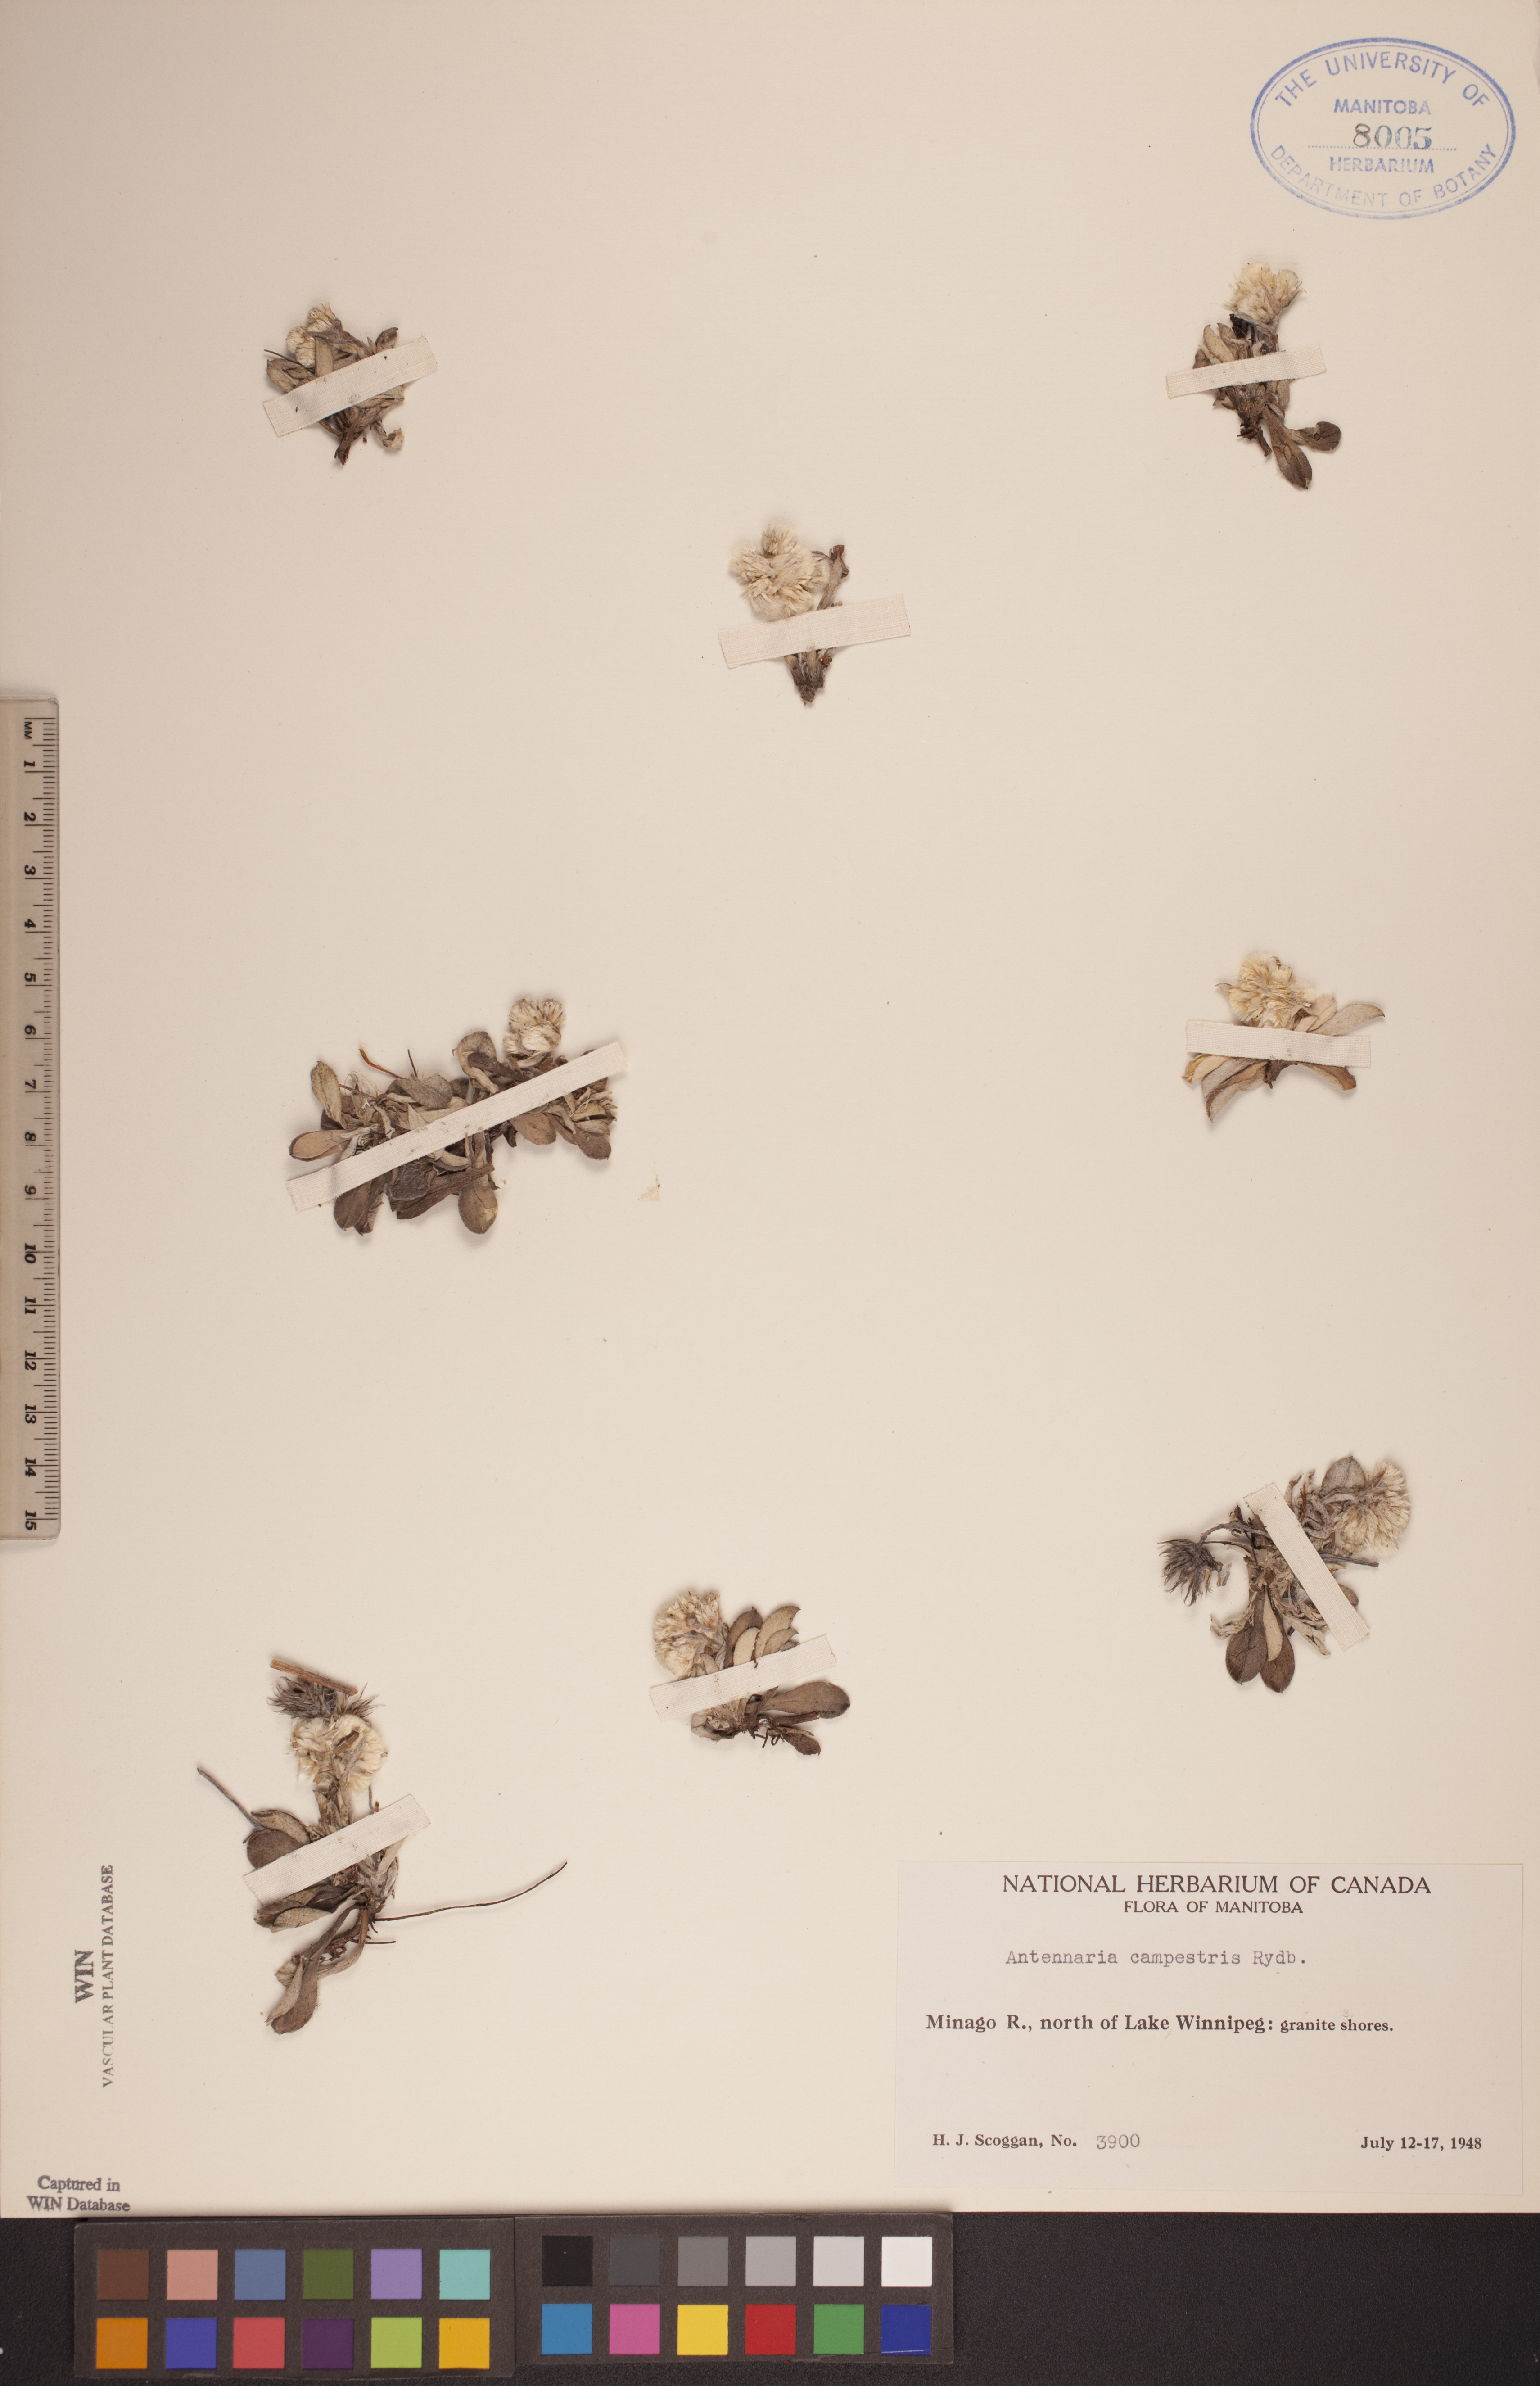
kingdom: Plantae
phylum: Tracheophyta
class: Magnoliopsida
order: Asterales
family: Asteraceae
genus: Antennaria
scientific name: Antennaria neglecta
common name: Field pussytoes
